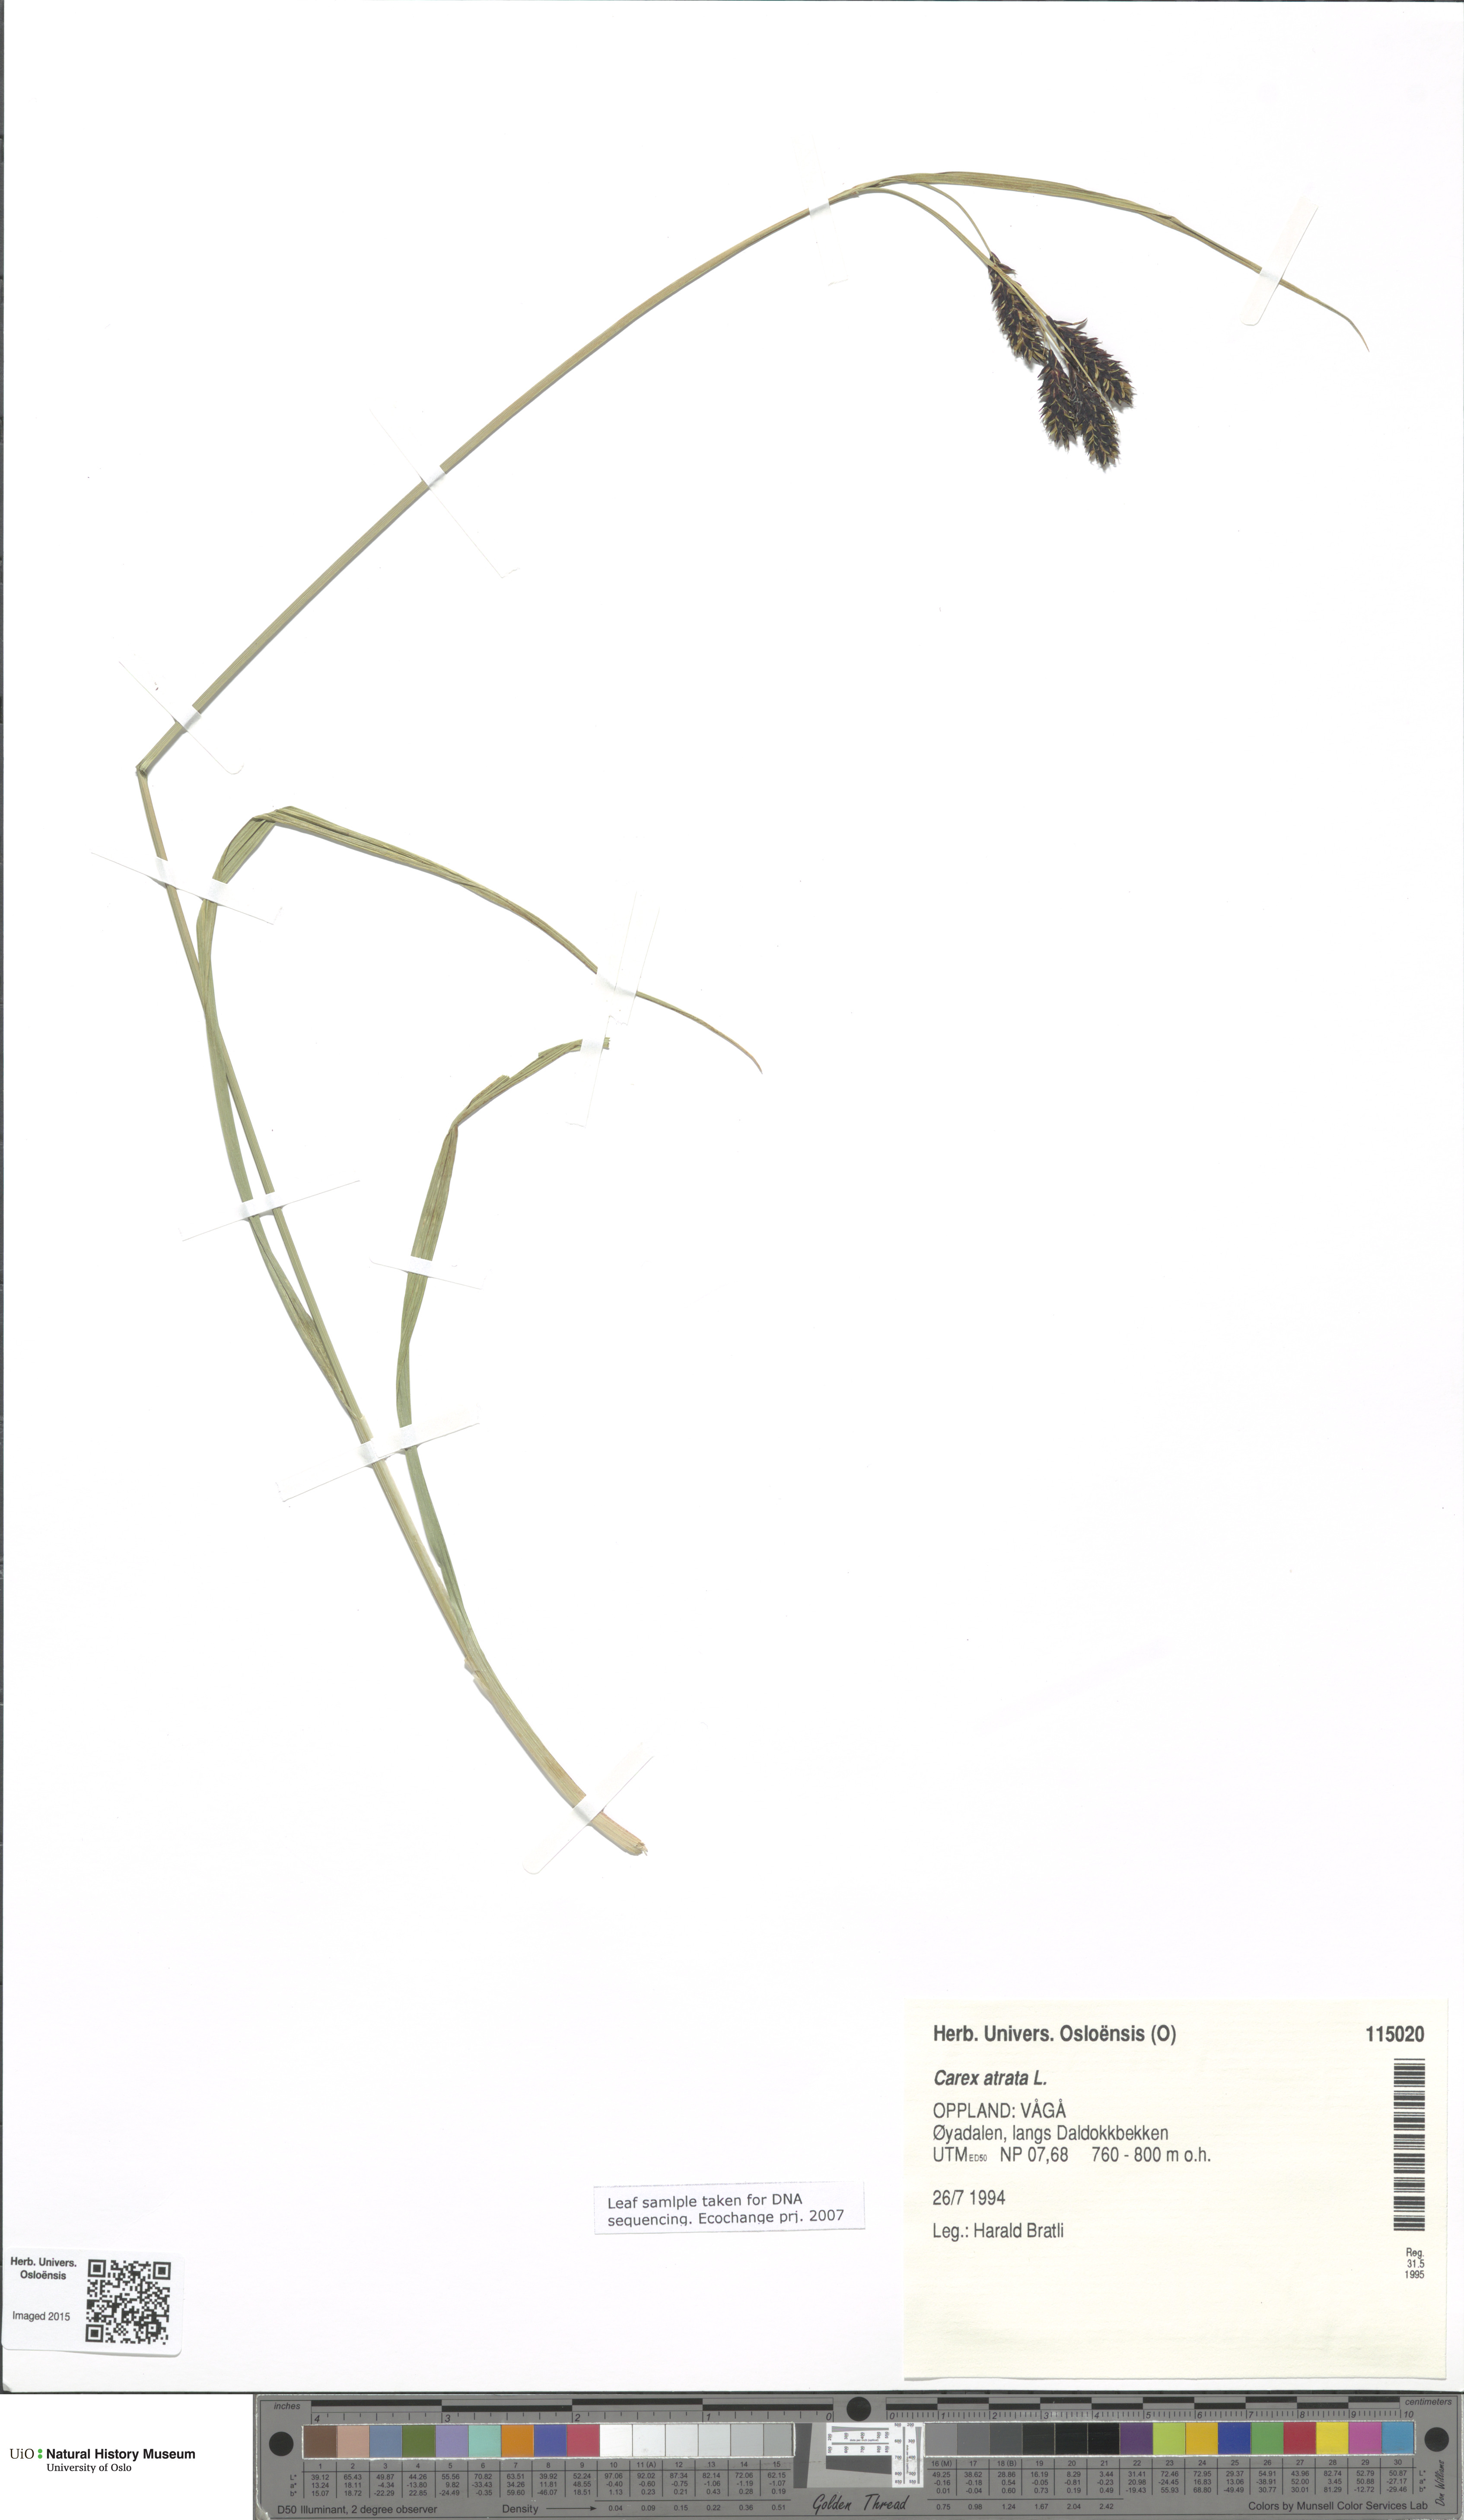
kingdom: Plantae
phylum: Tracheophyta
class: Liliopsida
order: Poales
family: Cyperaceae
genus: Carex
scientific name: Carex atrata
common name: Black alpine sedge
